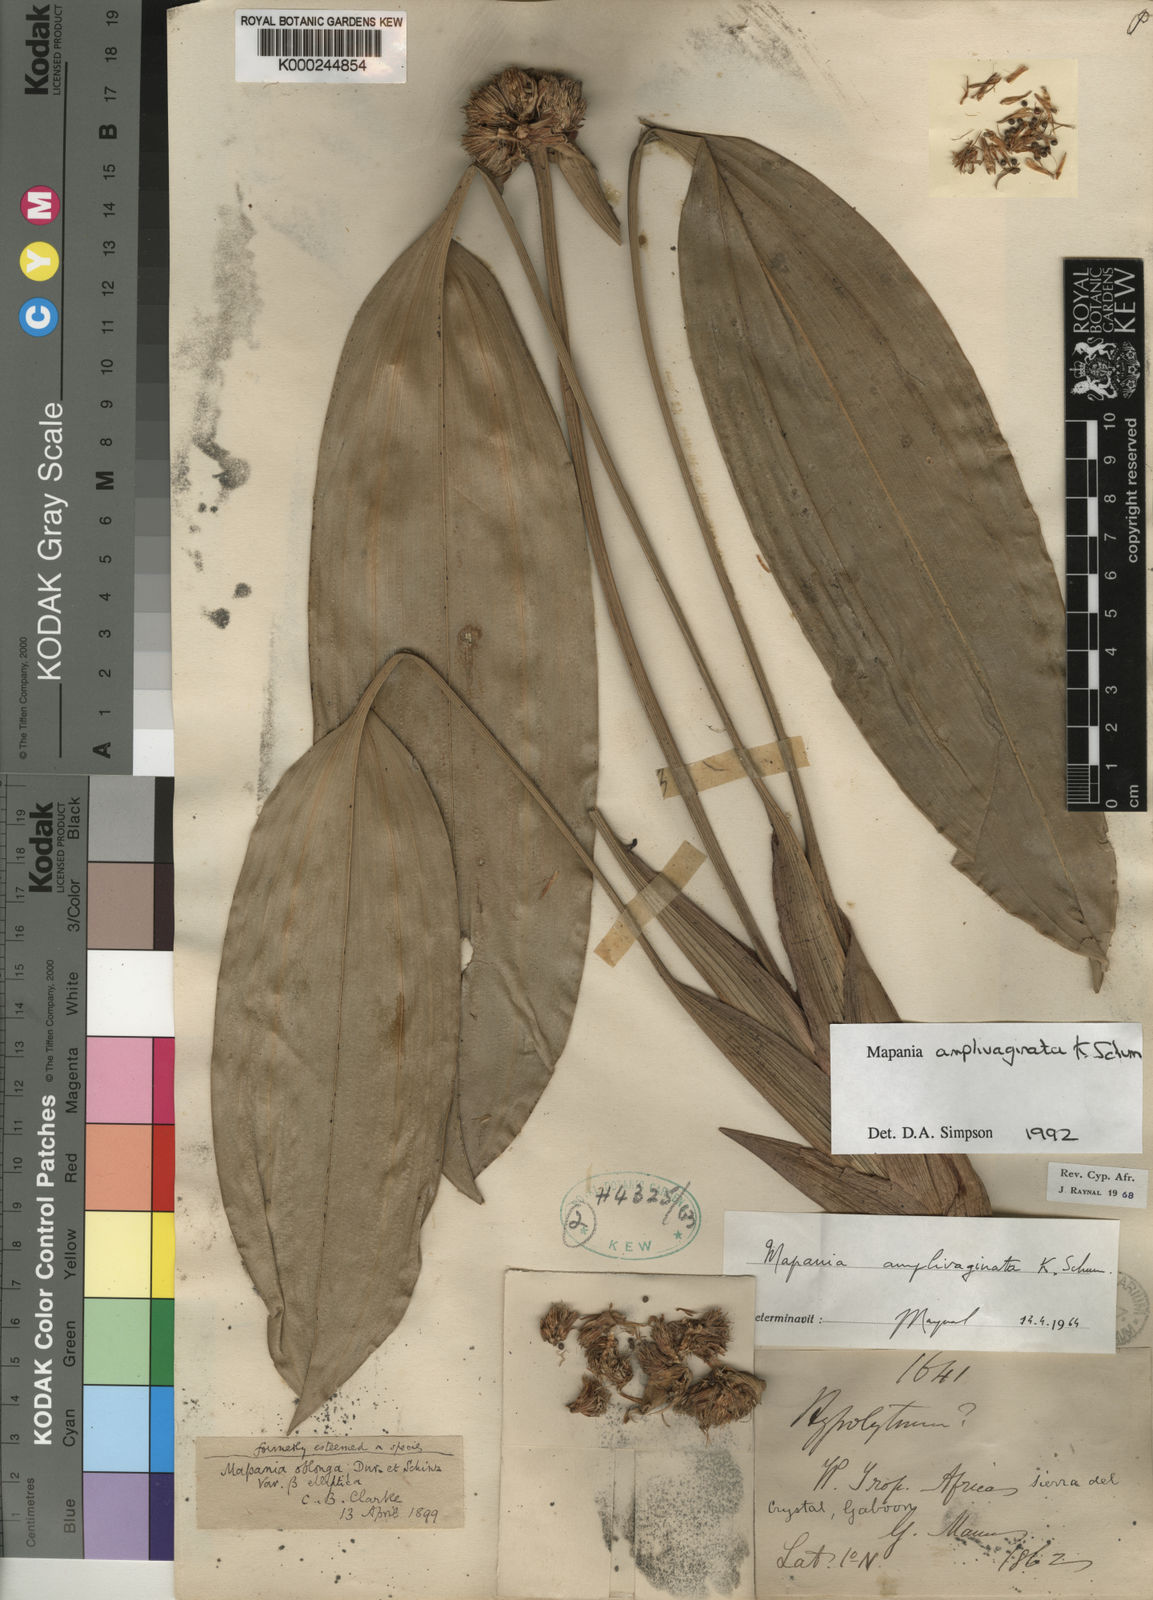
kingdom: Plantae
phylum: Tracheophyta
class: Liliopsida
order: Poales
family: Cyperaceae
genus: Mapania
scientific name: Mapania amplivaginata
